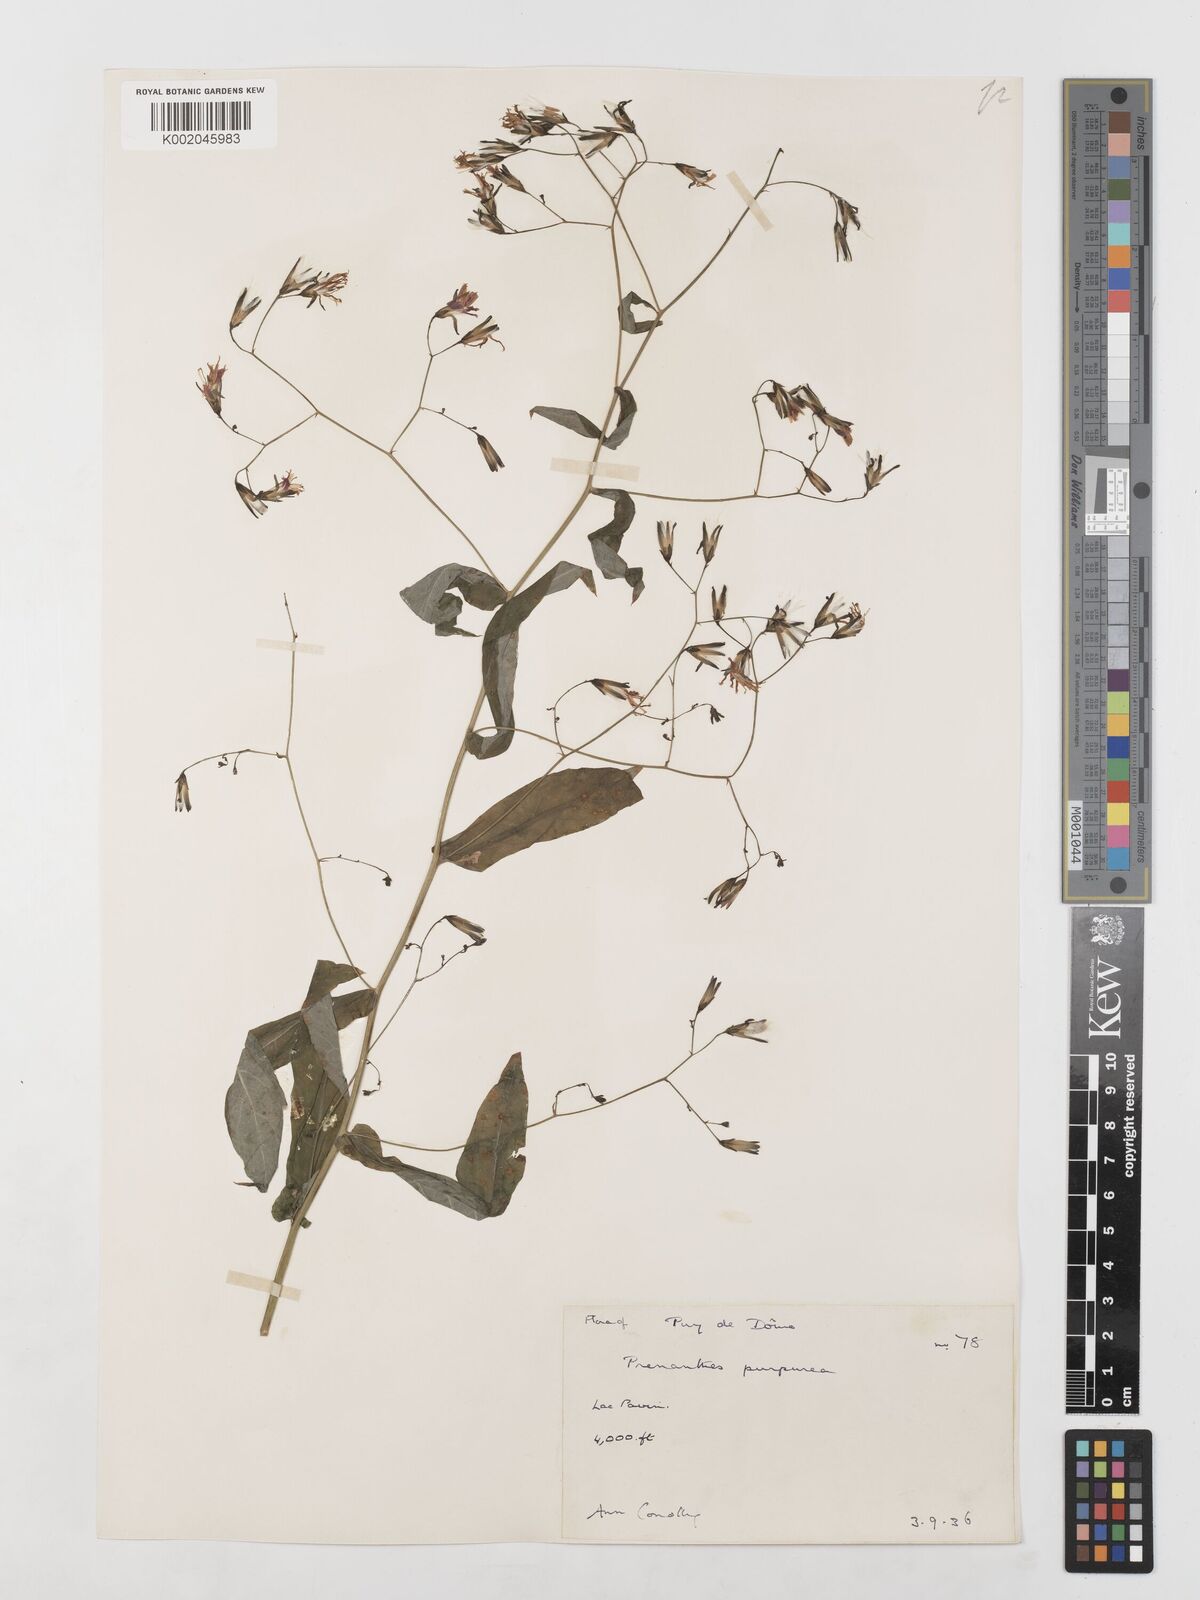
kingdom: Plantae
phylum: Tracheophyta
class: Magnoliopsida
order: Asterales
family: Asteraceae
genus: Prenanthes
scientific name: Prenanthes purpurea
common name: Purple lettuce
